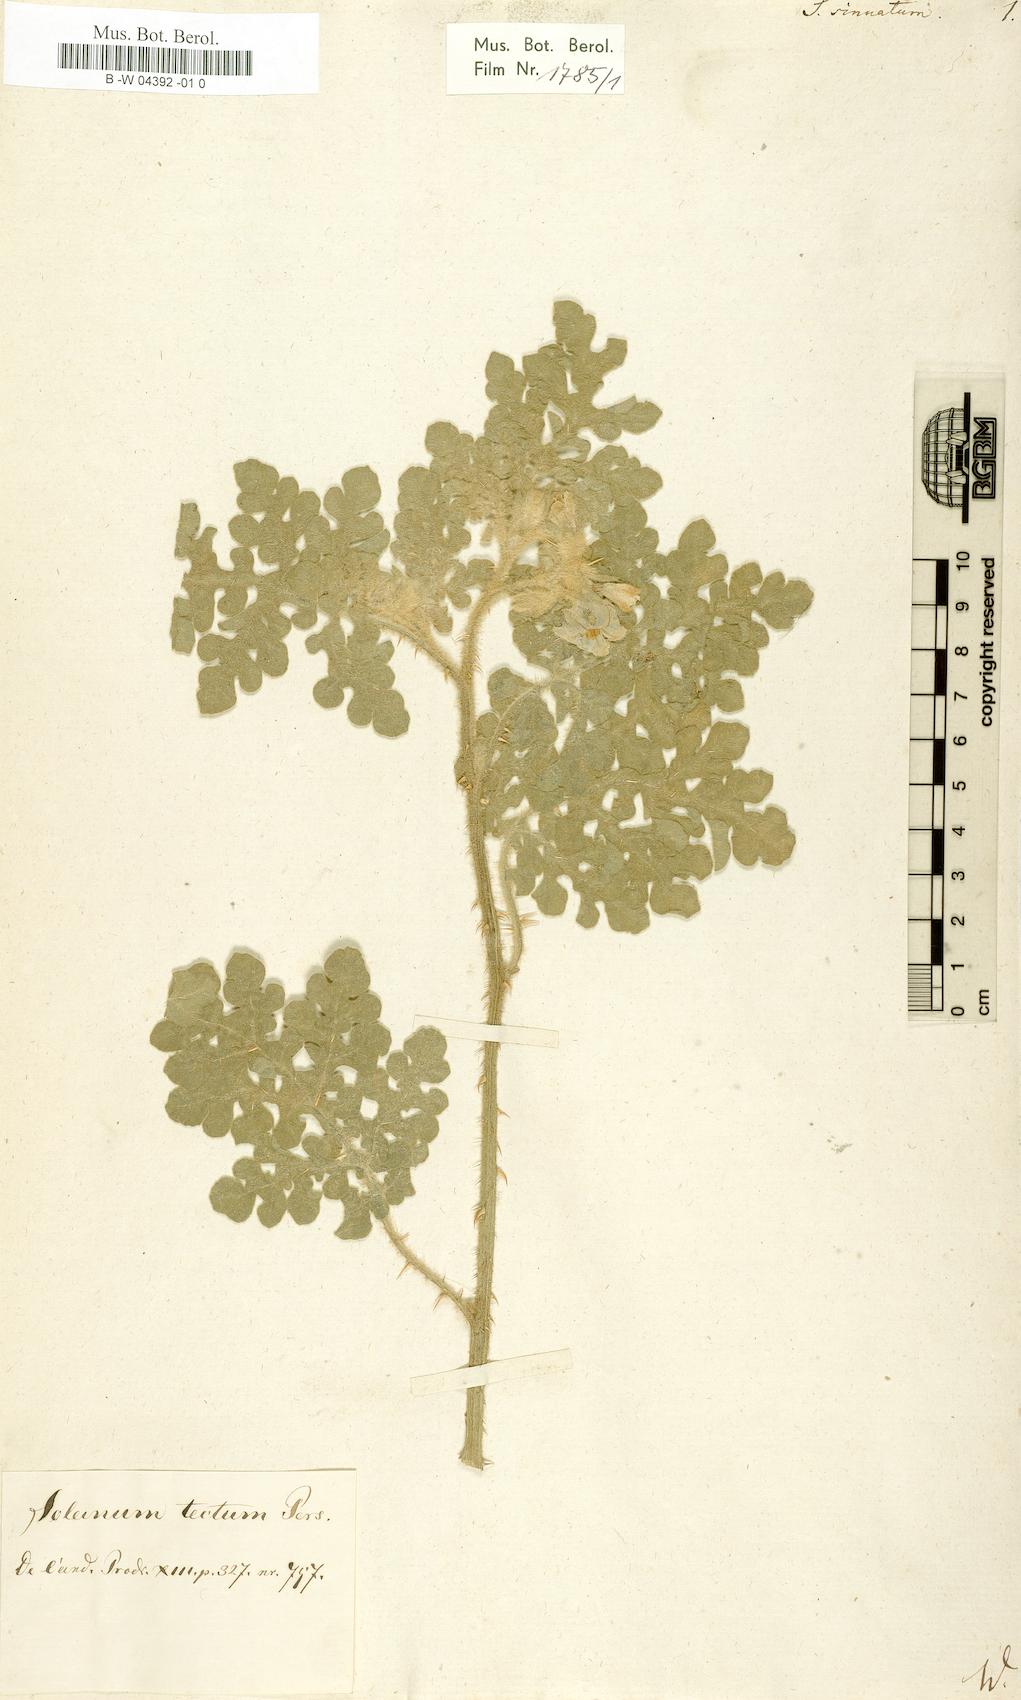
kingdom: Plantae
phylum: Tracheophyta
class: Magnoliopsida
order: Solanales
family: Solanaceae
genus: Solanum
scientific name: Solanum
